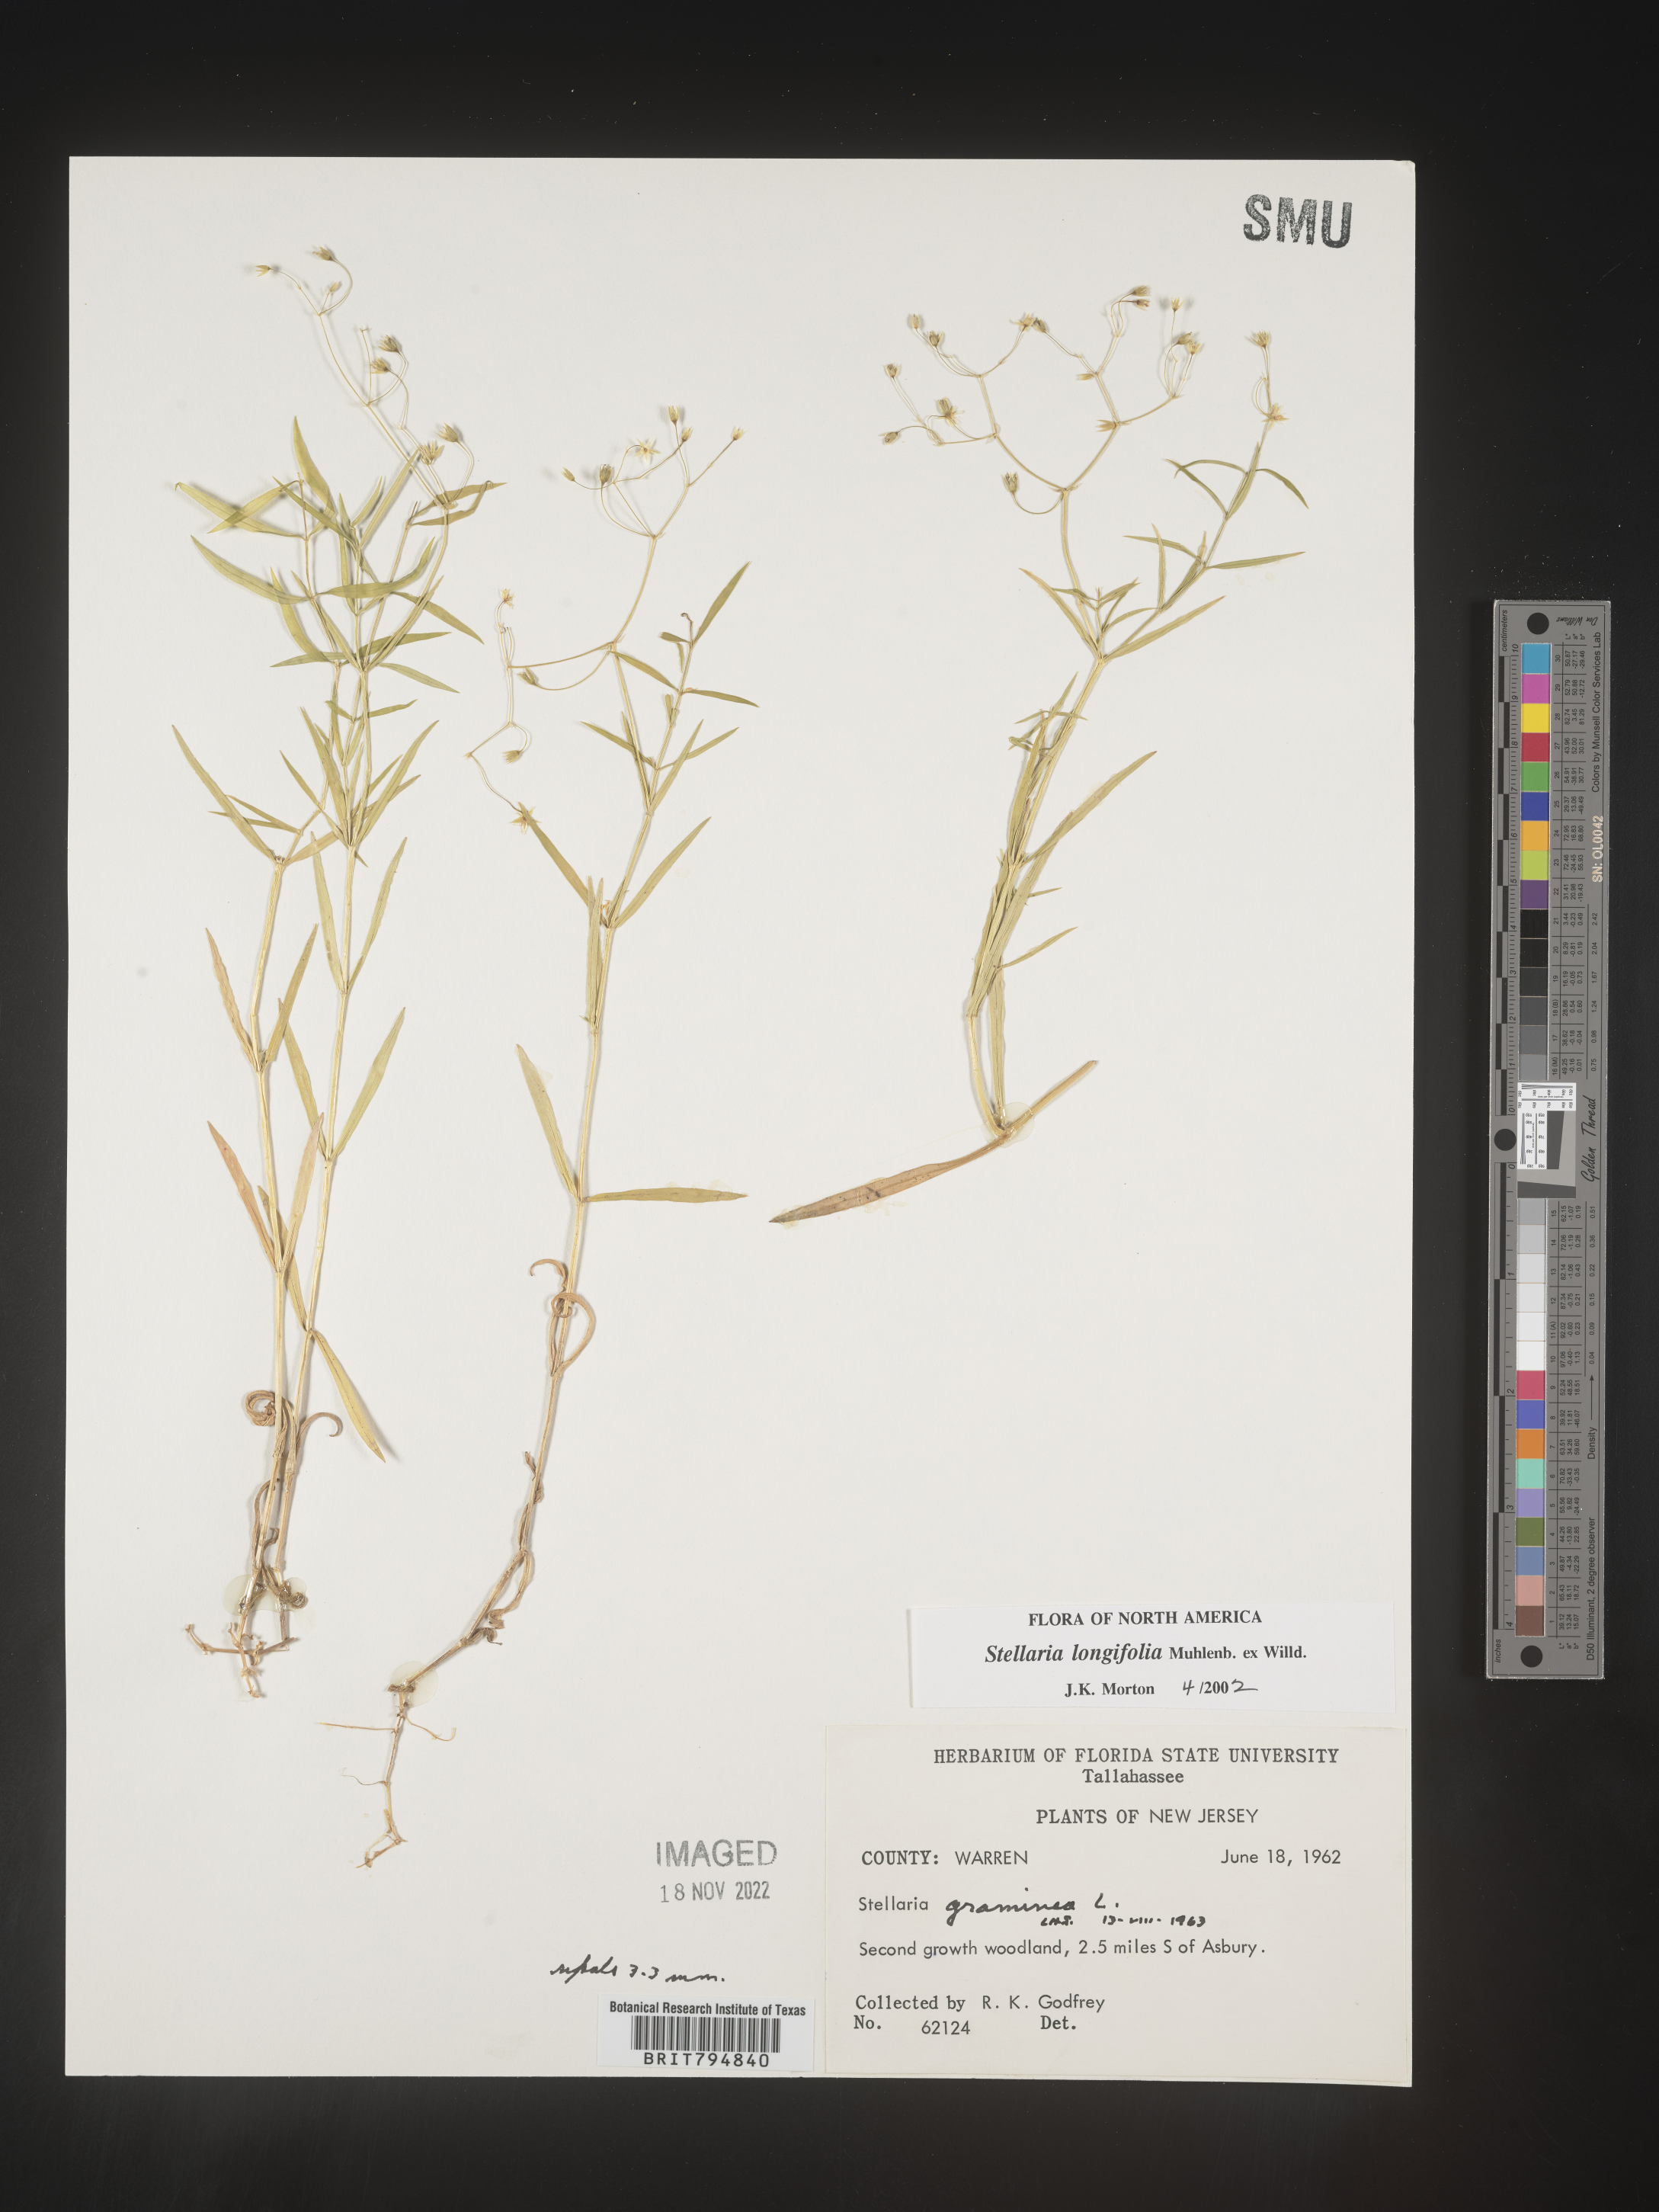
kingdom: Plantae
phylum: Tracheophyta
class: Magnoliopsida
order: Caryophyllales
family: Caryophyllaceae
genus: Stellaria
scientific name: Stellaria longifolia
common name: Long-leaved chickweed
